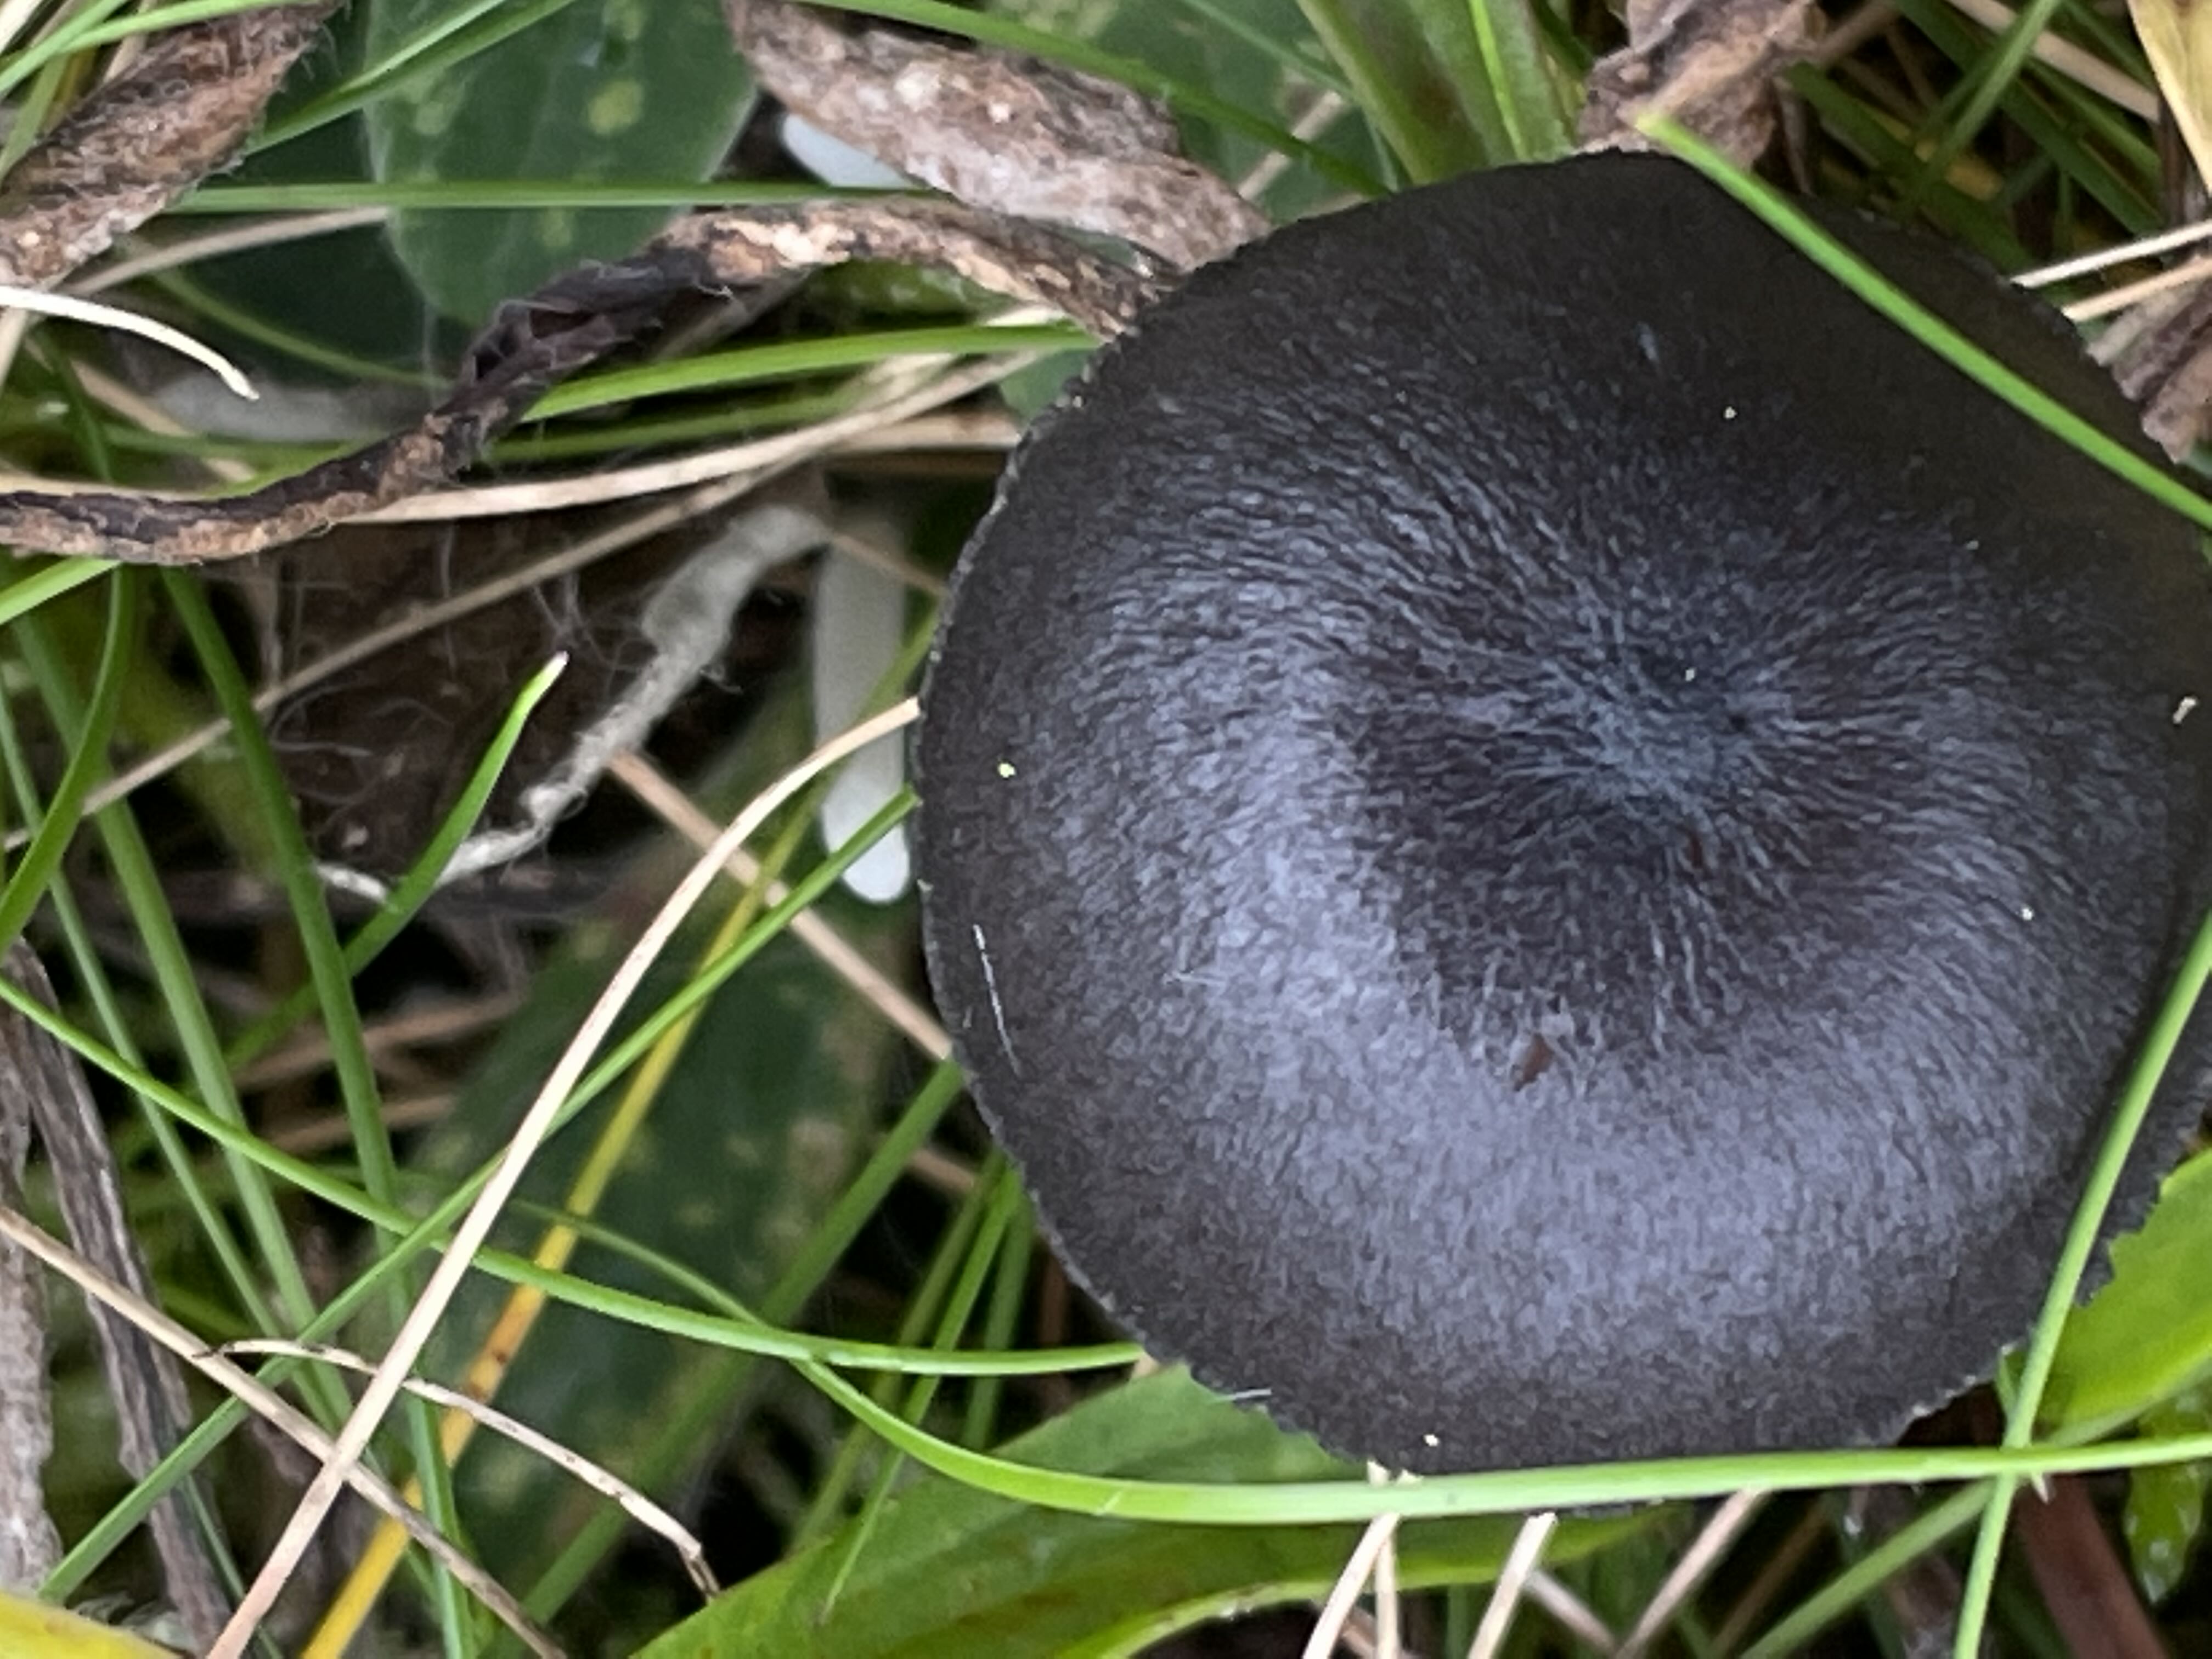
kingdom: Fungi
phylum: Basidiomycota
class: Agaricomycetes
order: Agaricales
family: Entolomataceae
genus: Entoloma
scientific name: Entoloma
